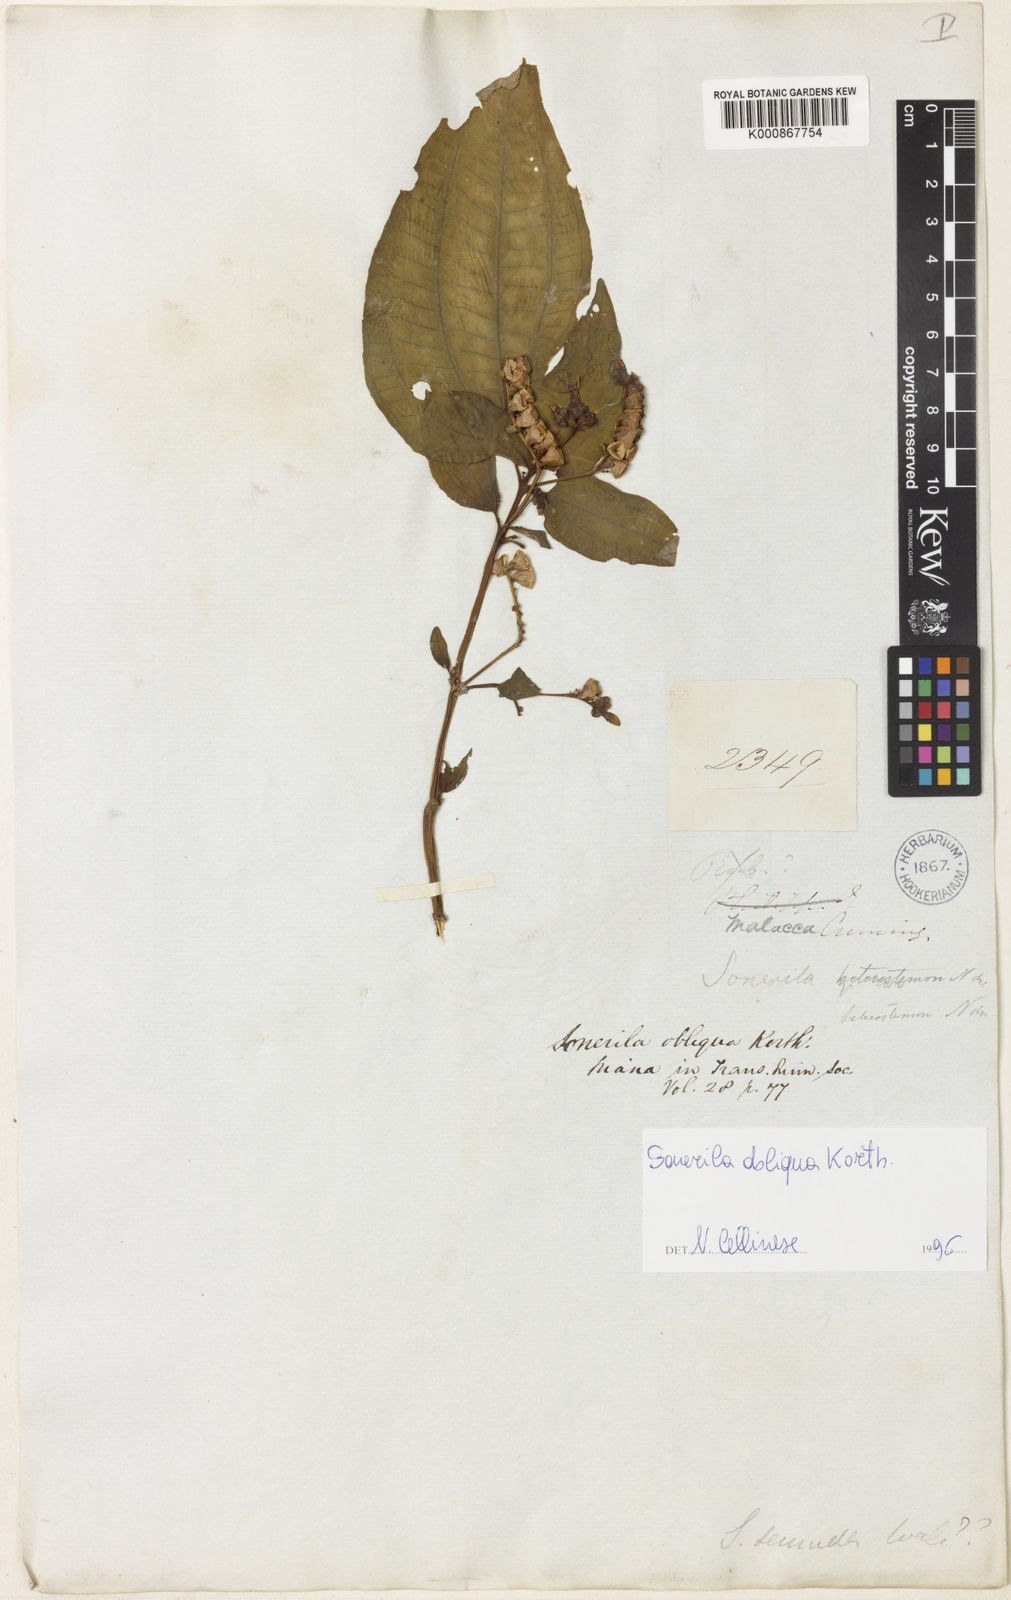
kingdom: Plantae
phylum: Tracheophyta
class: Magnoliopsida
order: Myrtales
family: Melastomataceae
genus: Sonerila
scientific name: Sonerila obliqua
